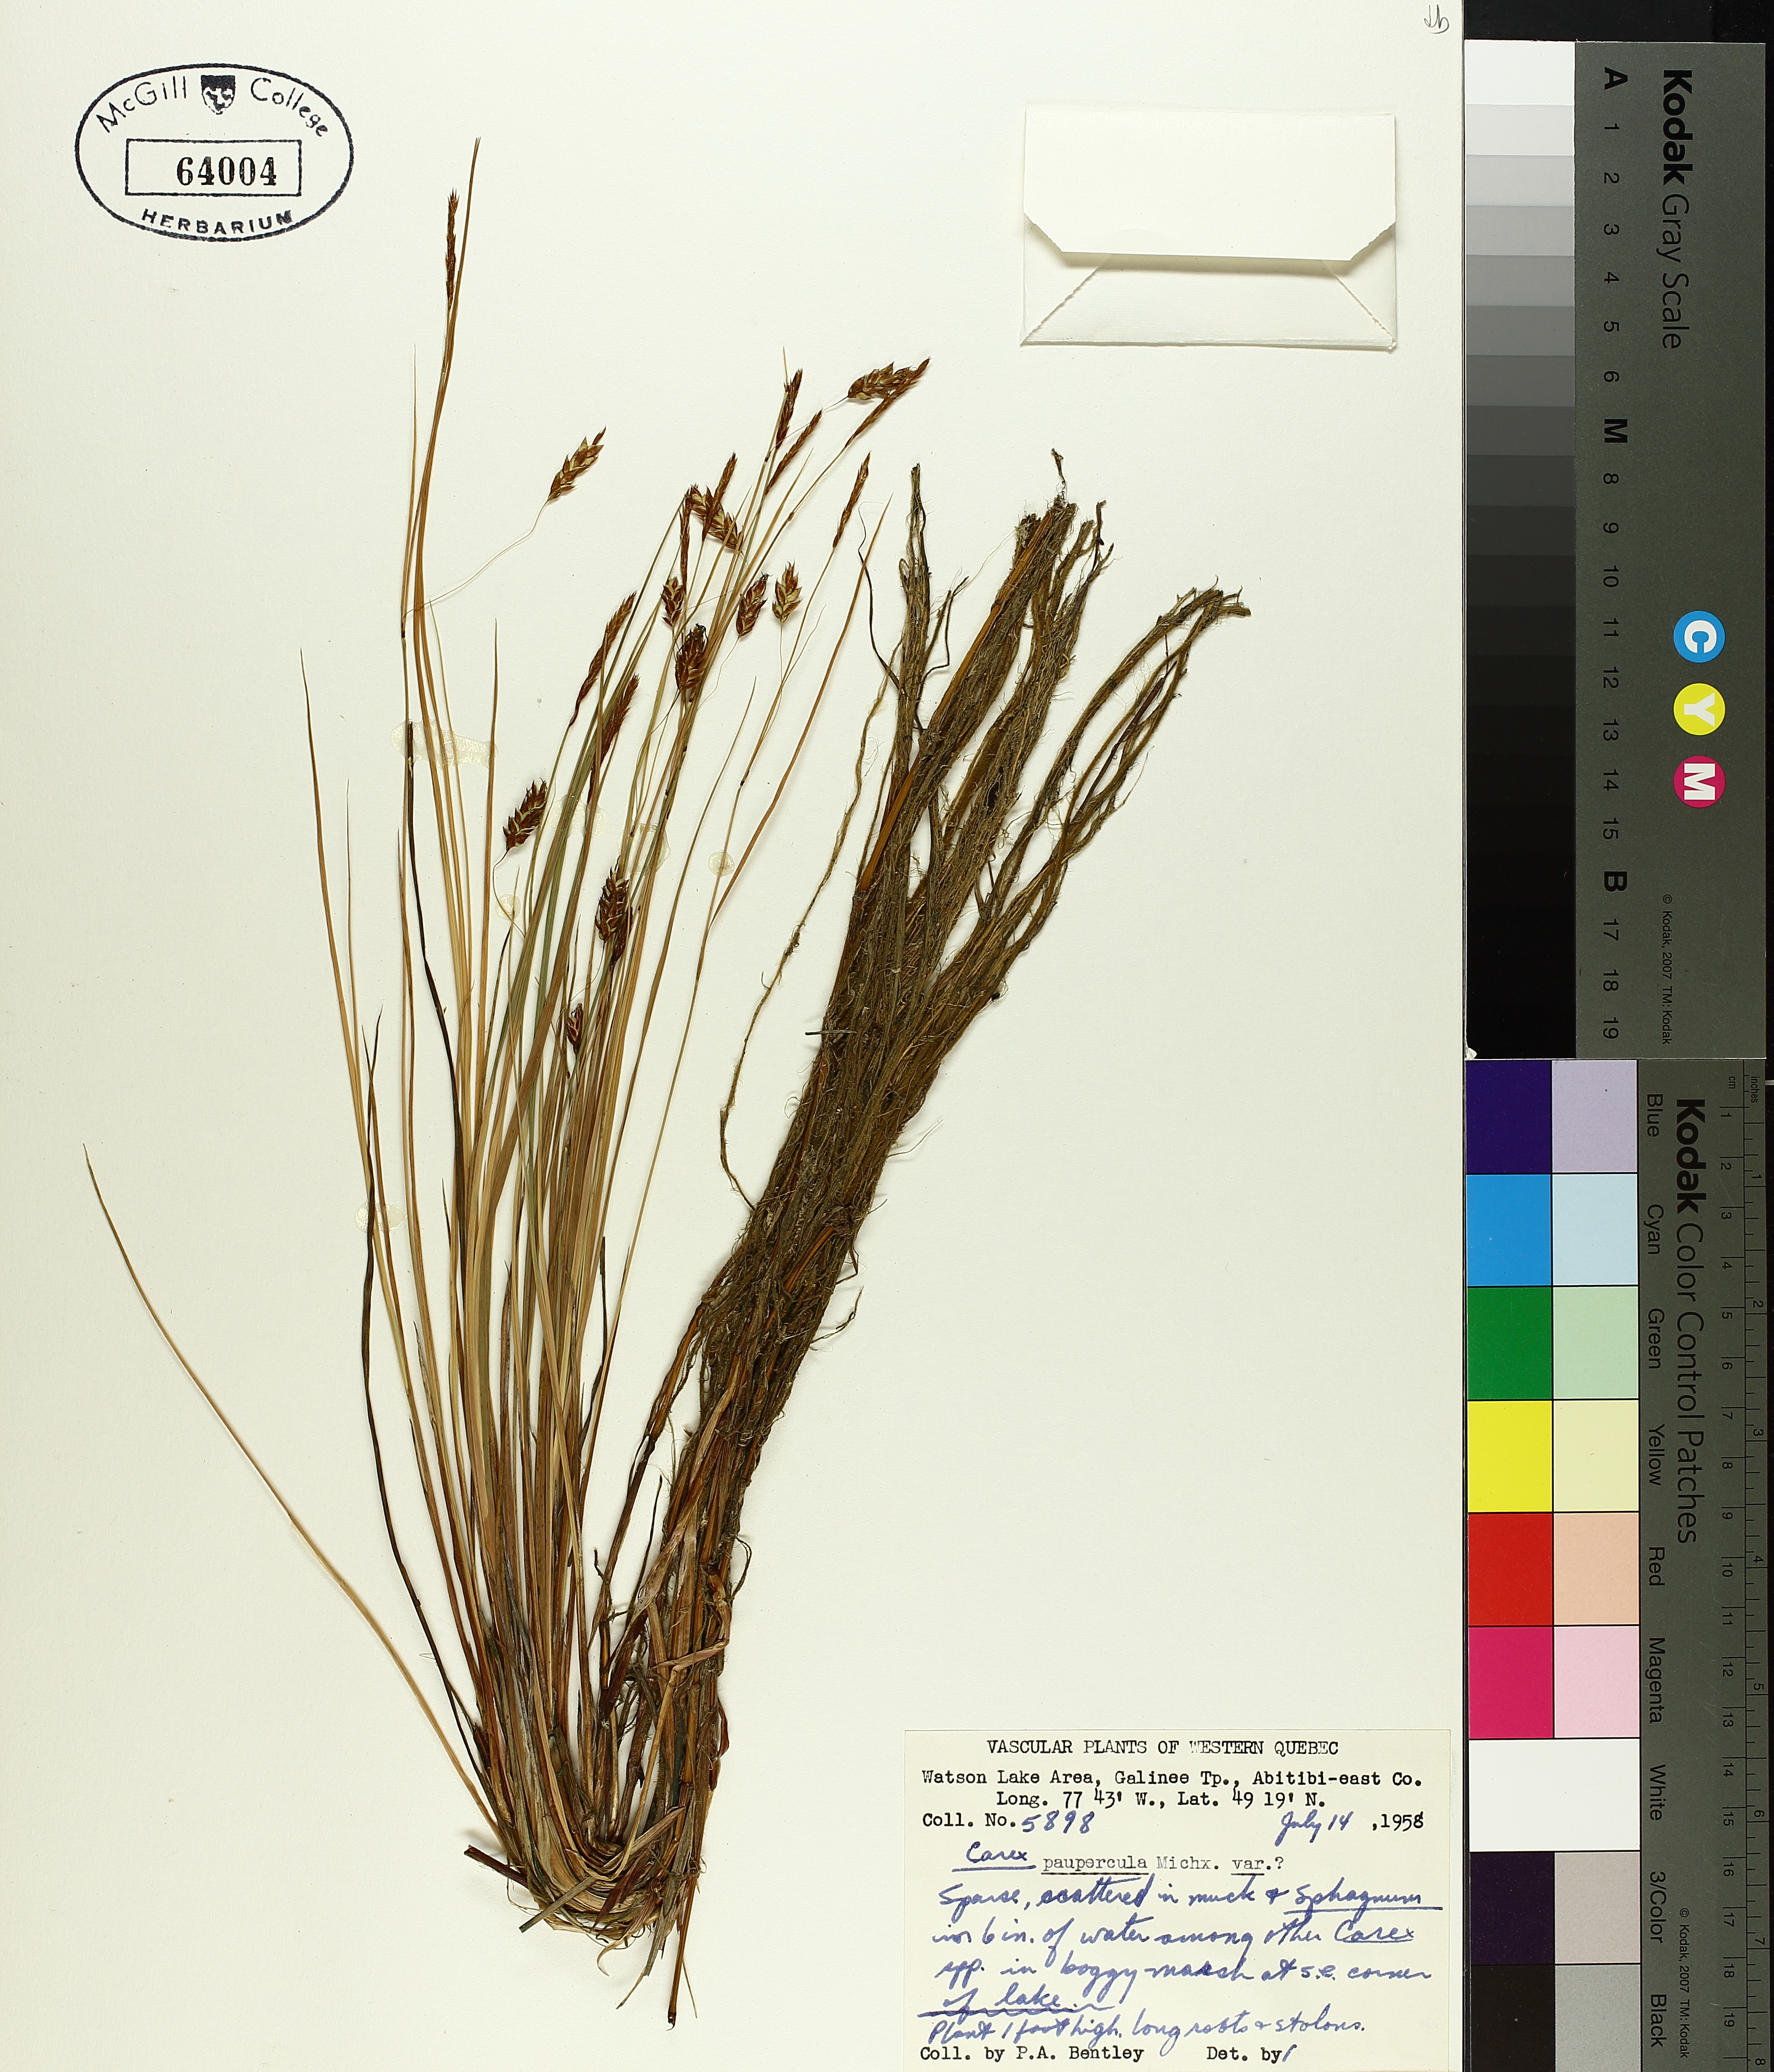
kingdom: Plantae
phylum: Tracheophyta
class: Liliopsida
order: Poales
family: Cyperaceae
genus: Carex
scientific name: Carex magellanica
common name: Bog sedge
